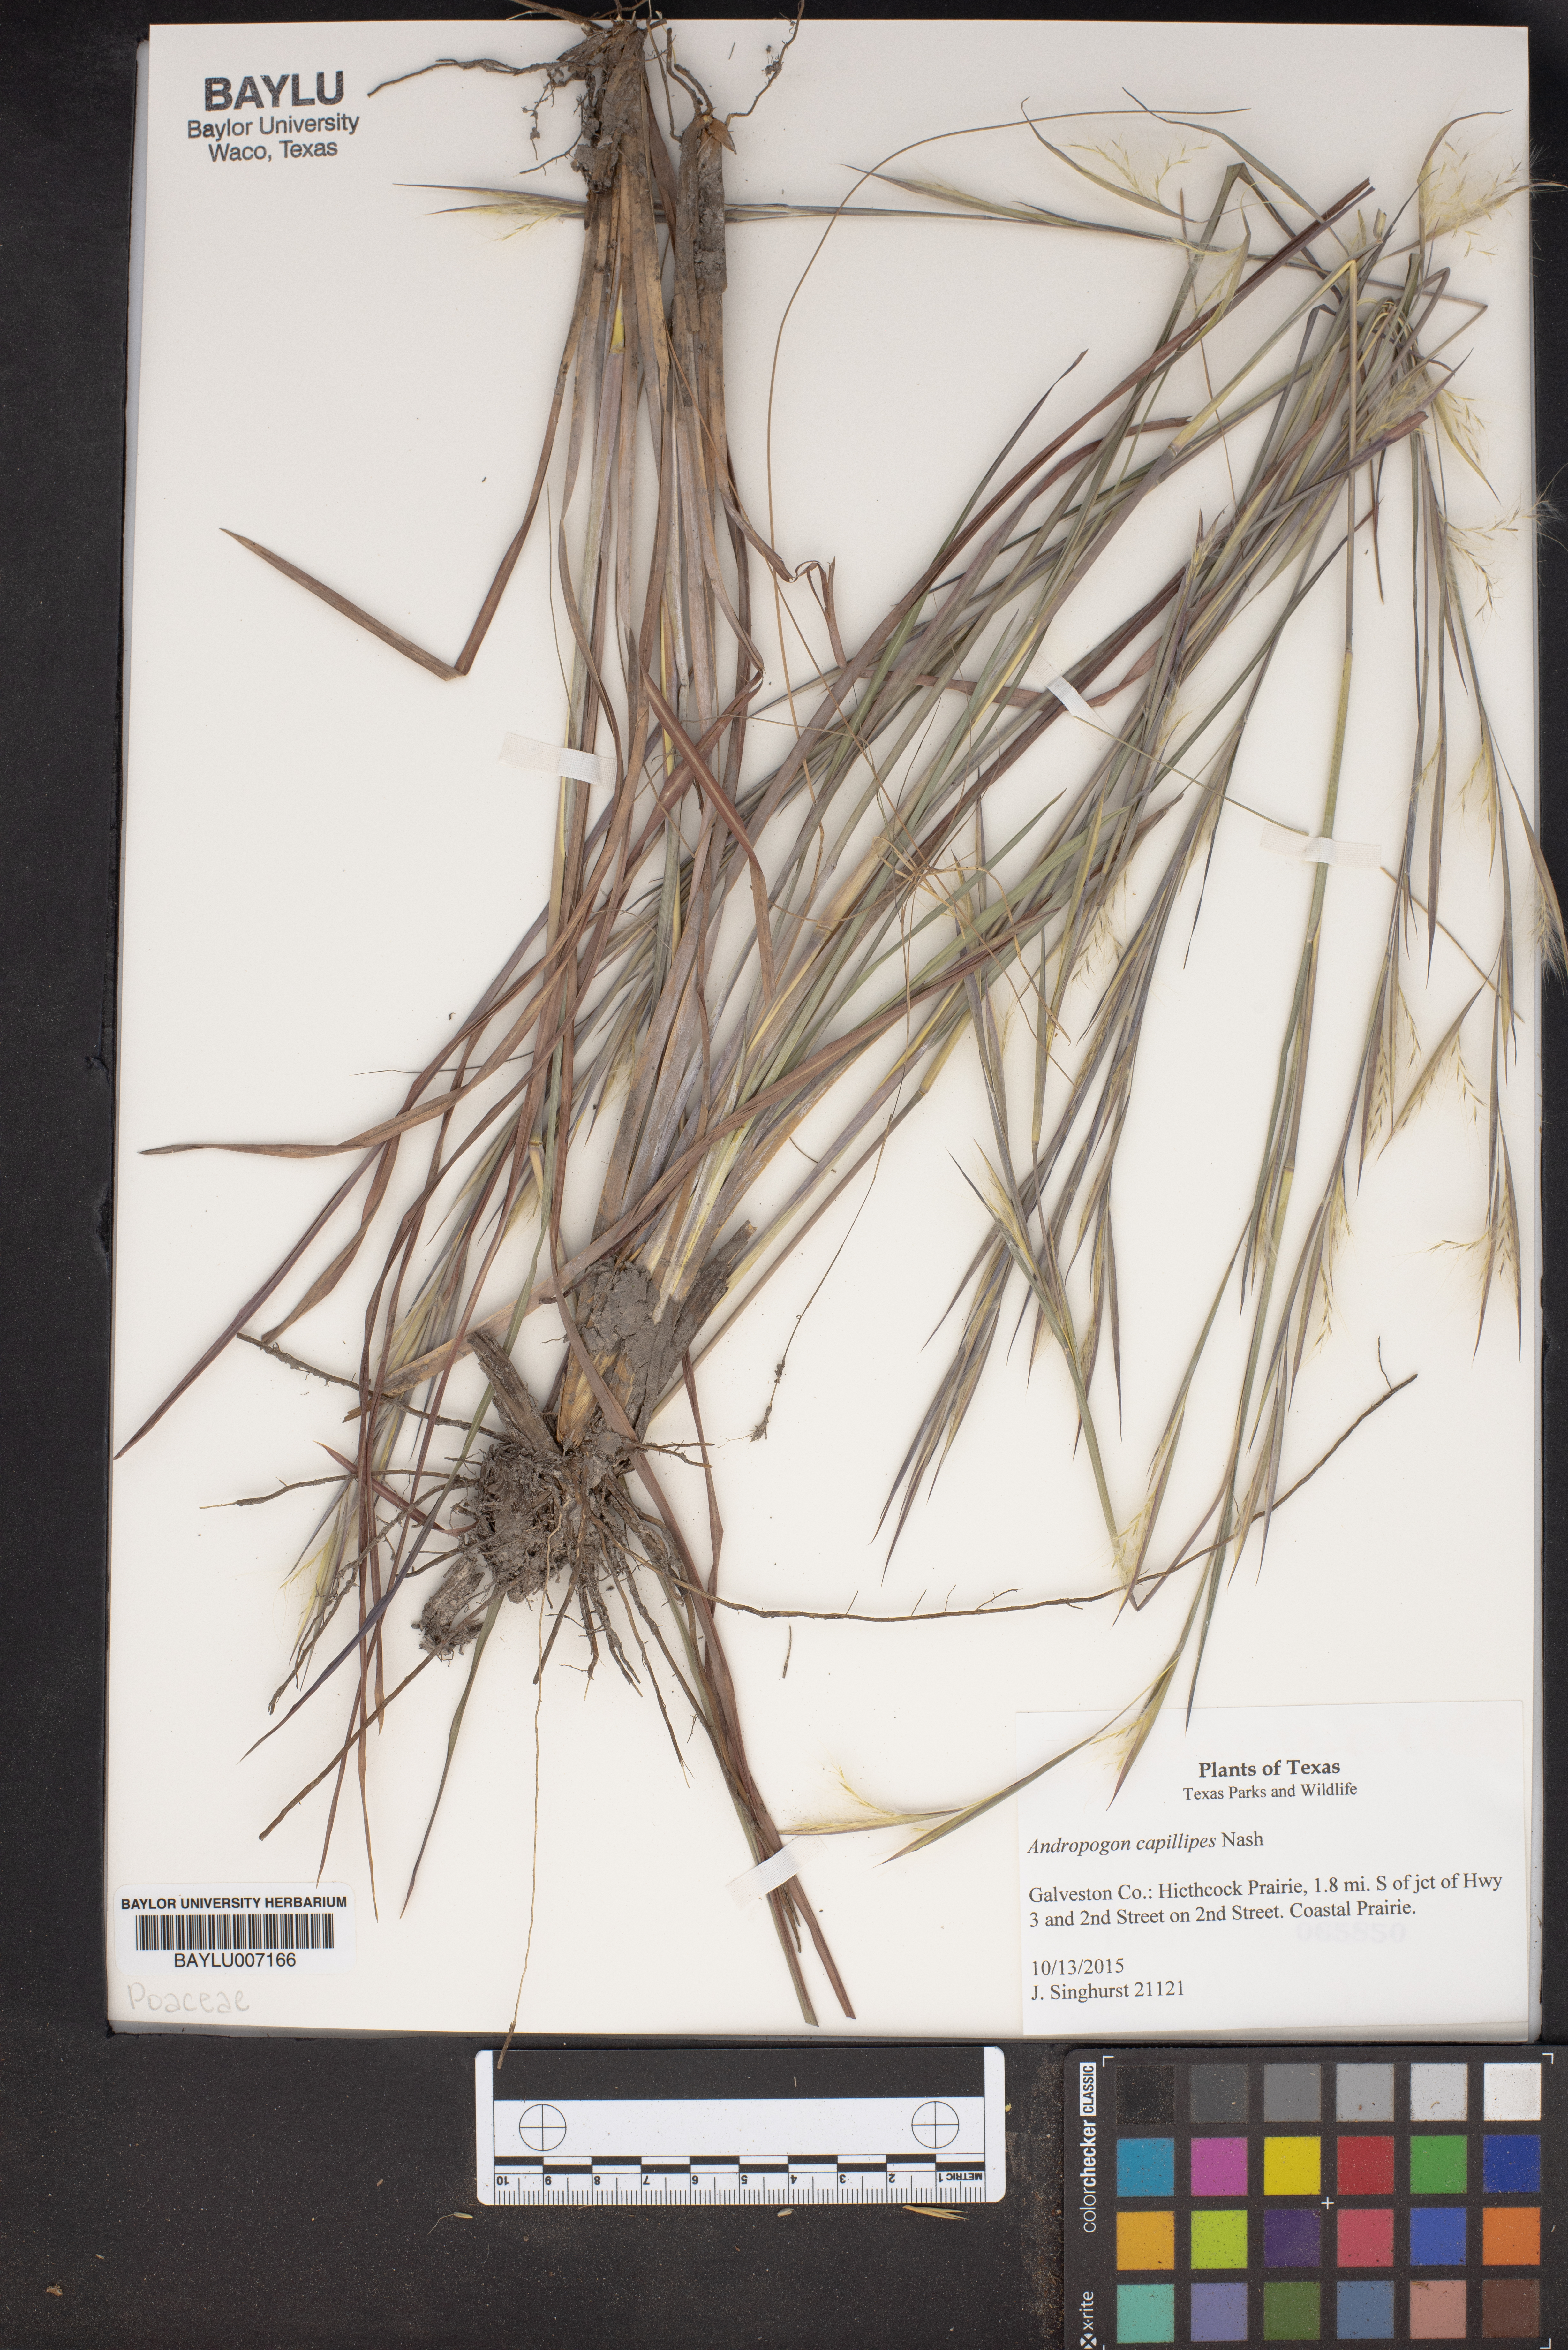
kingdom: Plantae
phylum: Tracheophyta
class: Liliopsida
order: Poales
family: Poaceae
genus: Andropogon
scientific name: Andropogon capillipes
